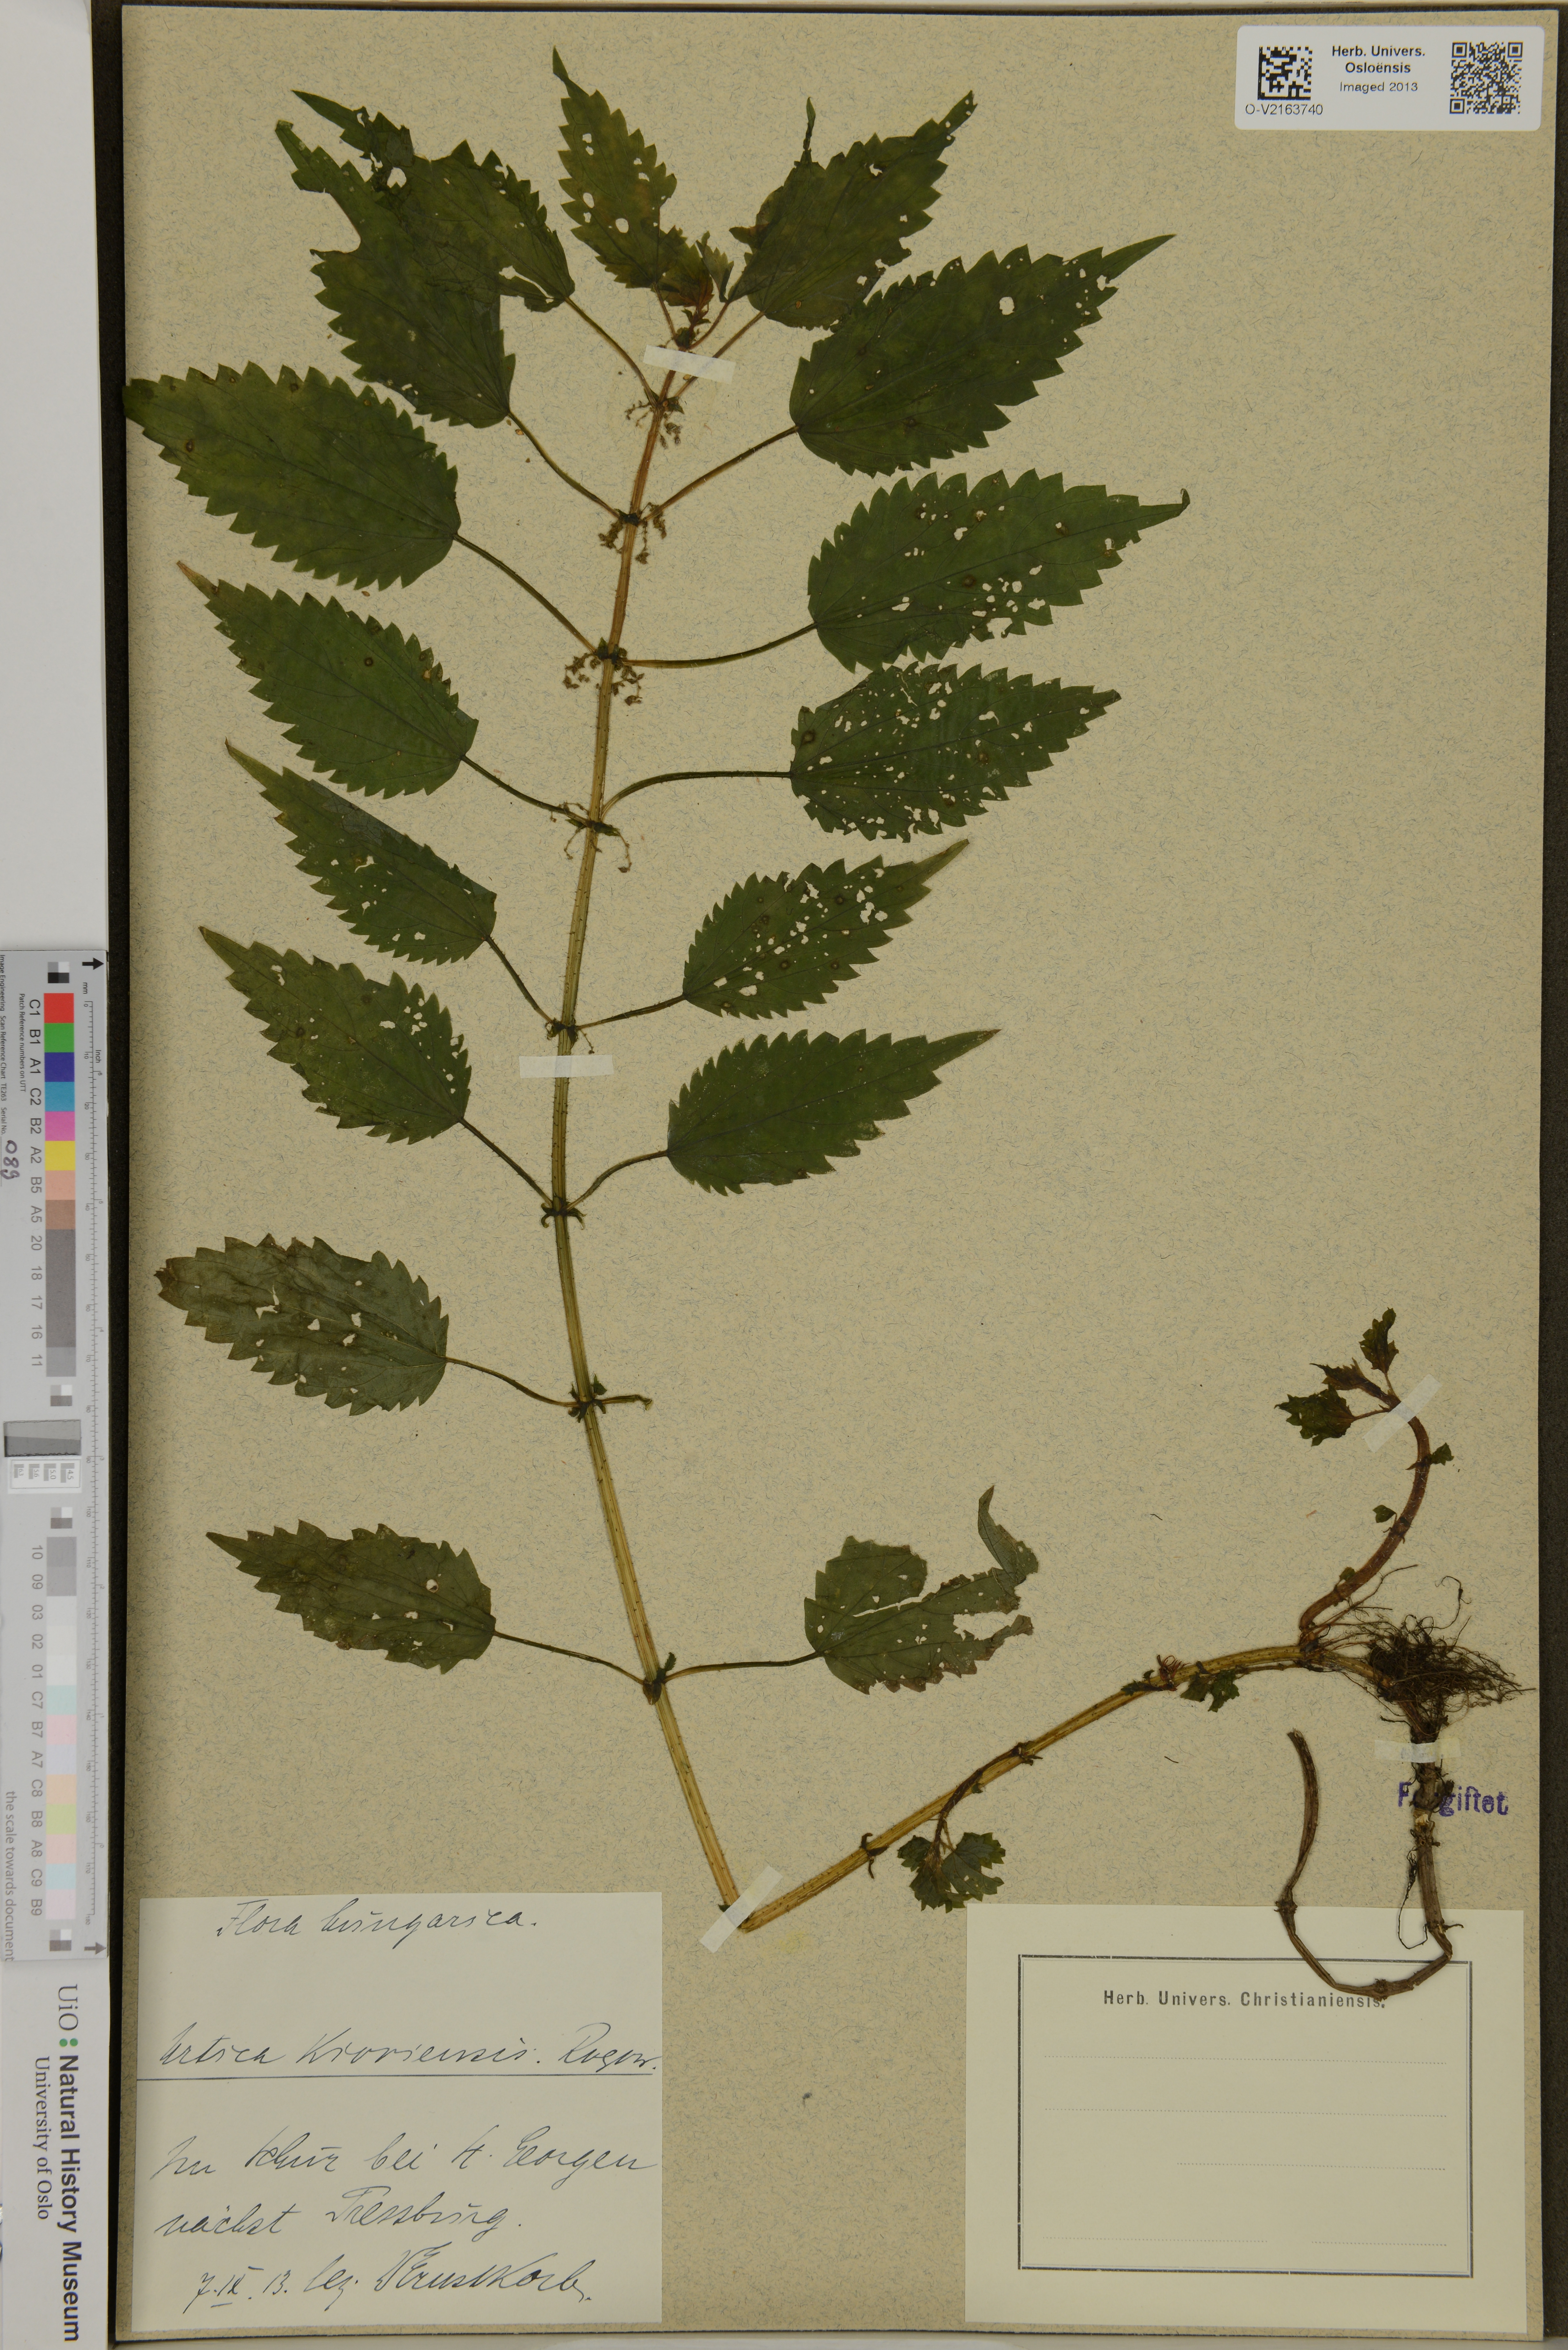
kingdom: Plantae
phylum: Tracheophyta
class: Magnoliopsida
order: Rosales
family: Urticaceae
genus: Urtica
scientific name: Urtica kioviensis
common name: Kievan nettle
